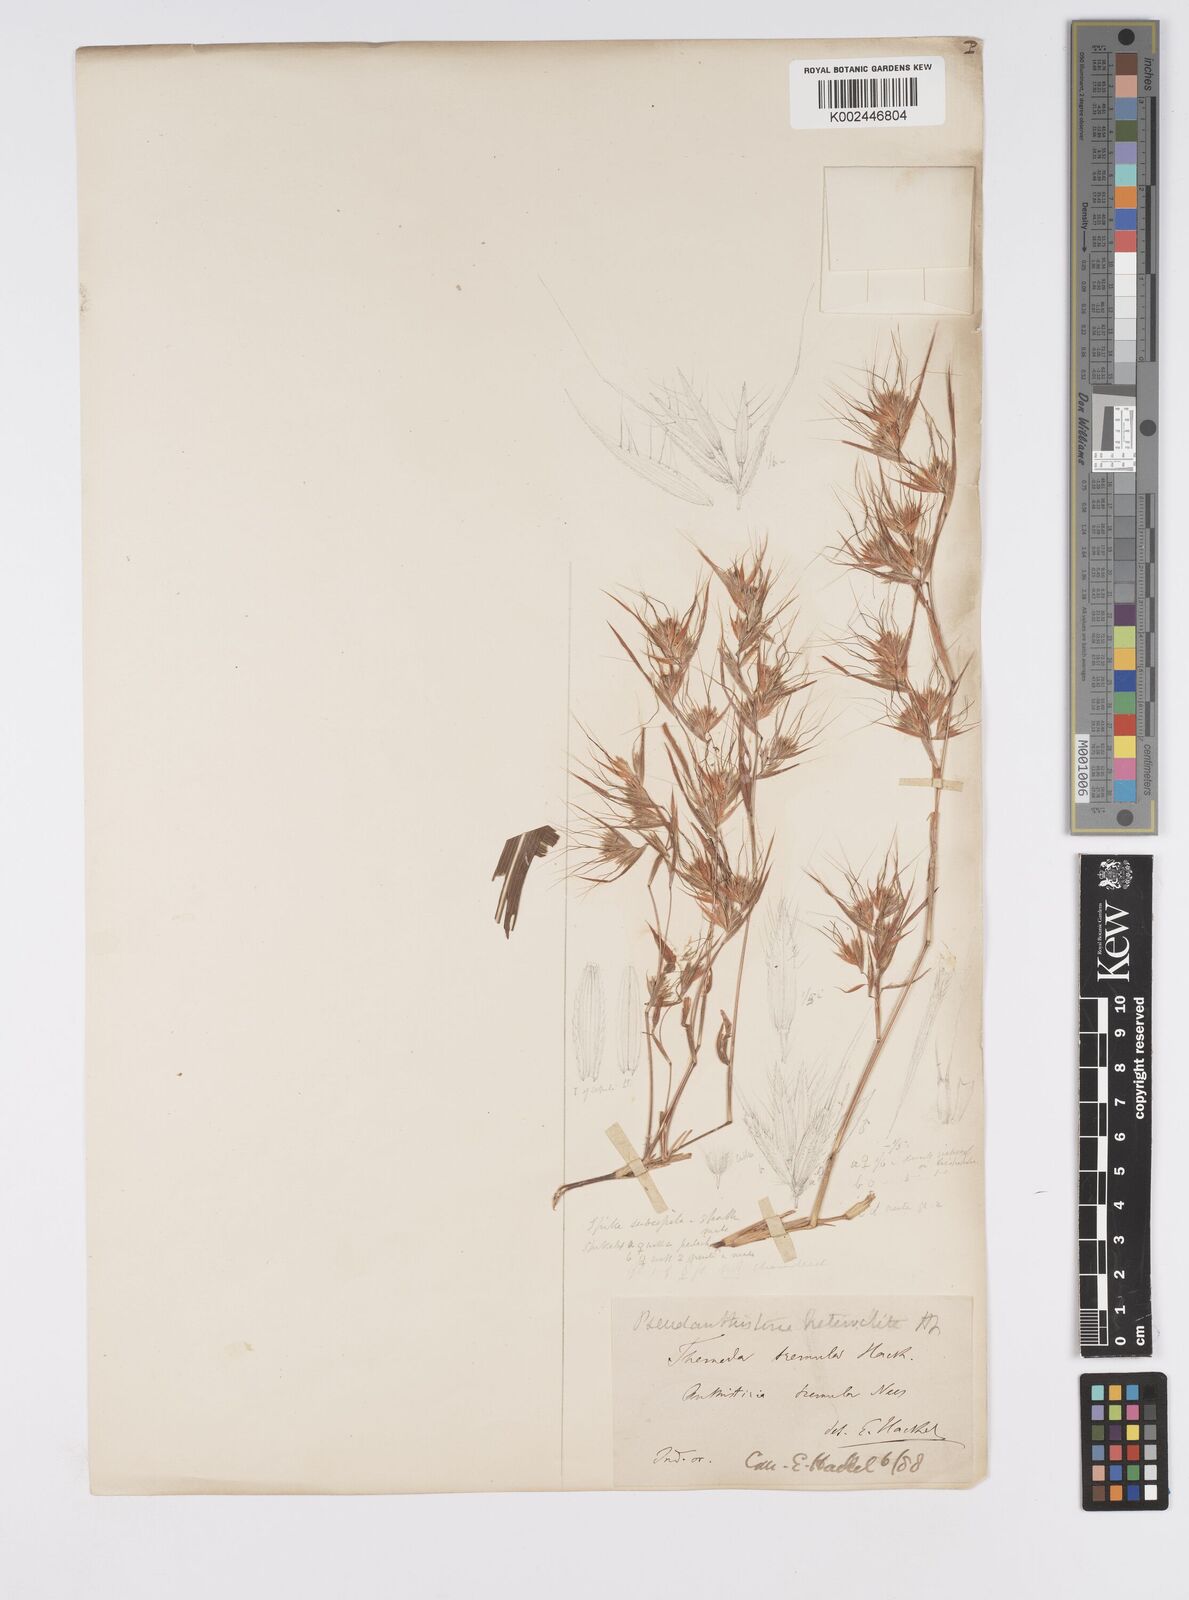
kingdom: Plantae
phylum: Tracheophyta
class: Liliopsida
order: Poales
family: Poaceae
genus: Pseudanthistiria
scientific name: Pseudanthistiria heteroclita
